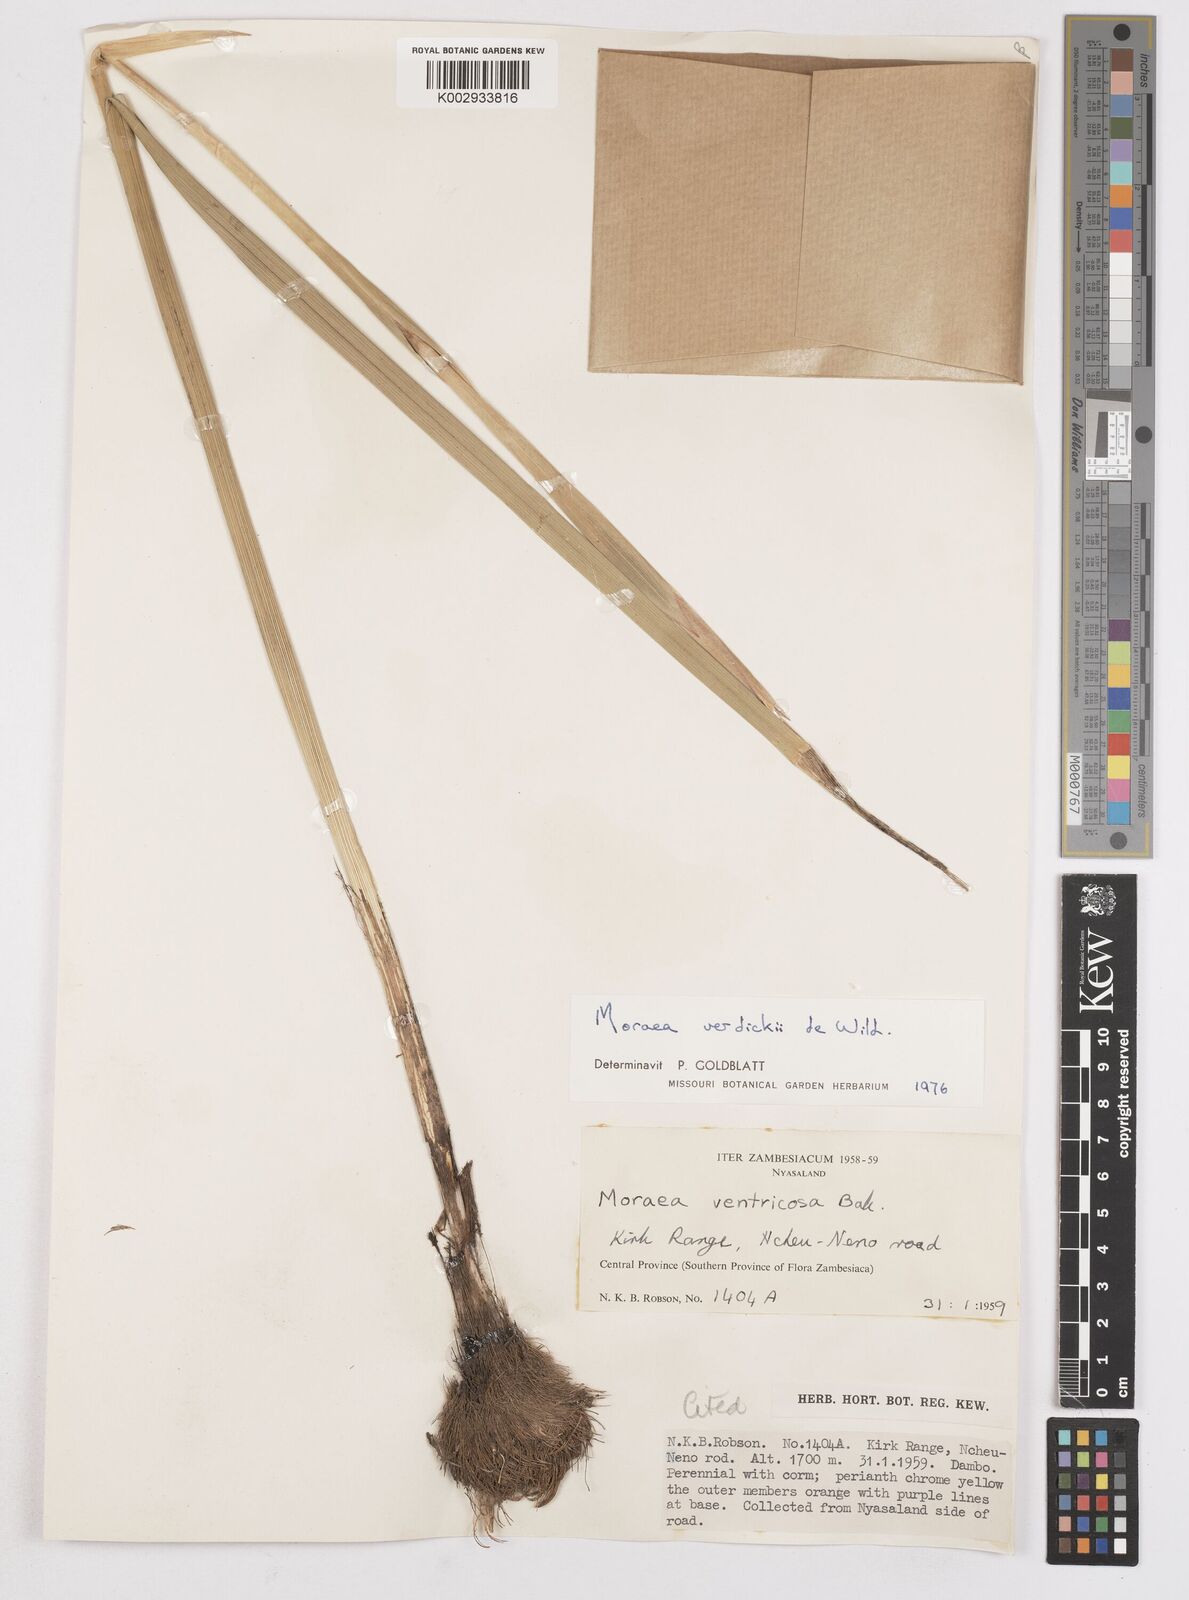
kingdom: Plantae
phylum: Tracheophyta
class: Liliopsida
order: Asparagales
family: Iridaceae
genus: Moraea
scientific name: Moraea verdickii
